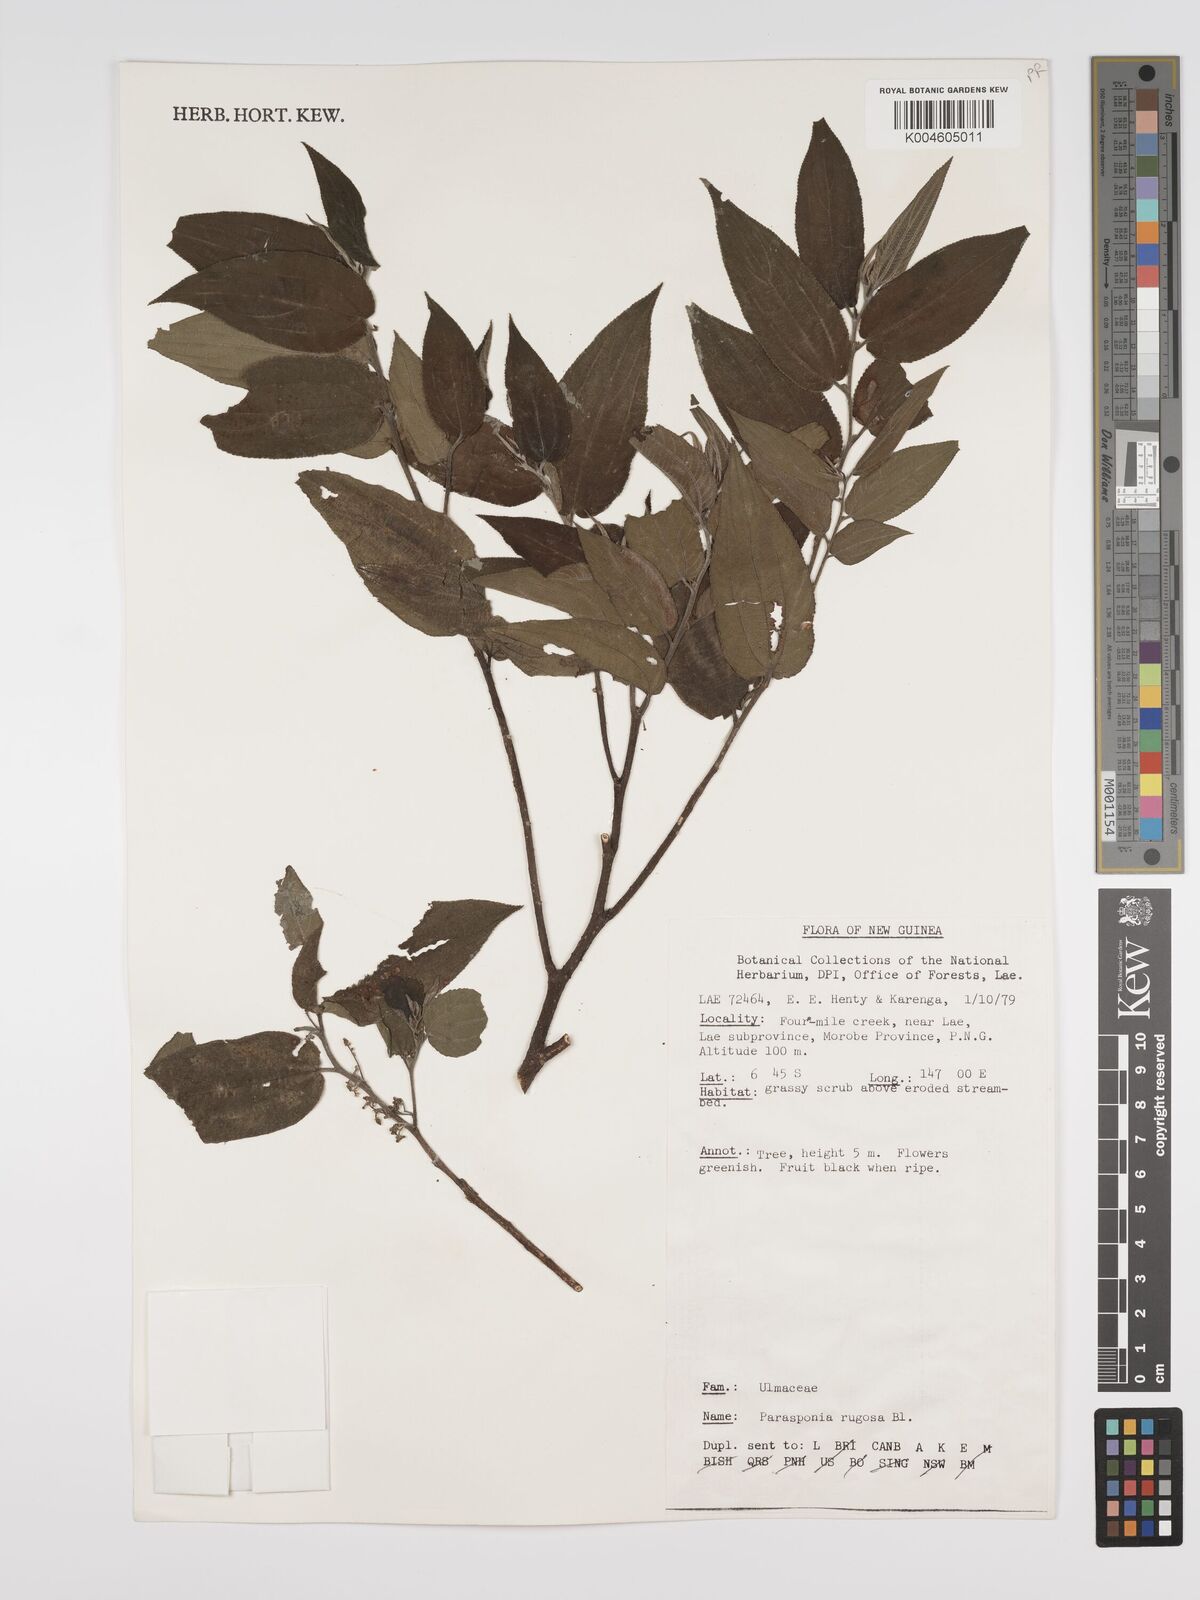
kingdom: Plantae
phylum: Tracheophyta
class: Magnoliopsida
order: Rosales
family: Cannabaceae
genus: Trema
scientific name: Trema eurhynchum
